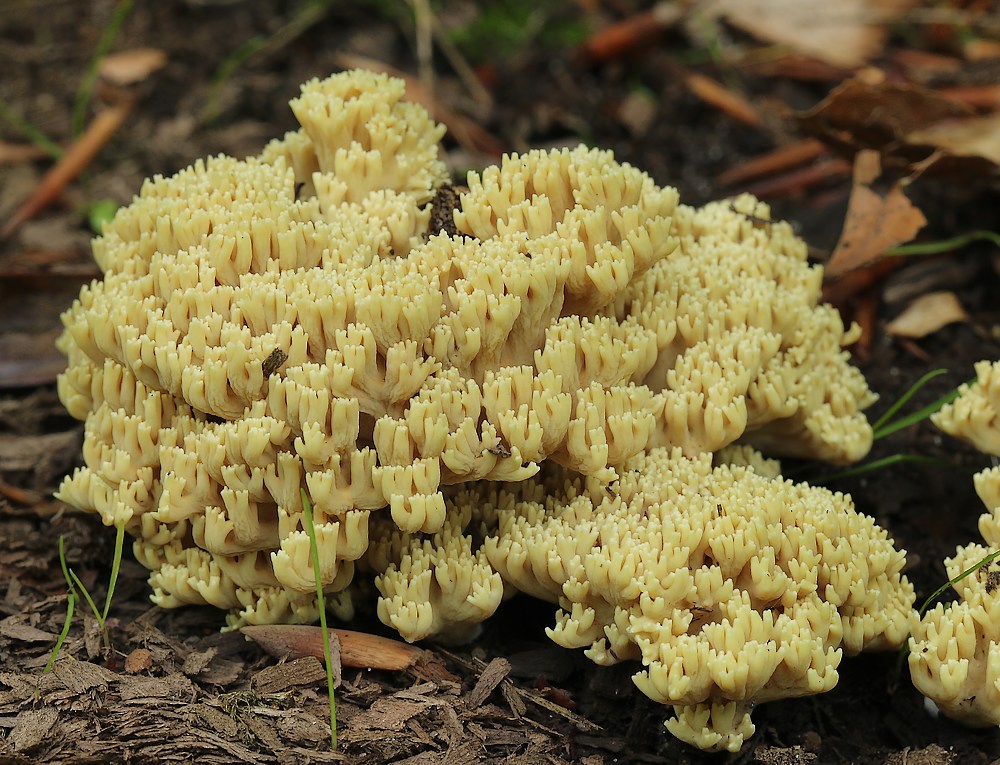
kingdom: Fungi
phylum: Basidiomycota
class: Agaricomycetes
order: Gomphales
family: Gomphaceae
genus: Ramaria
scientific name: Ramaria stricta
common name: rank koralsvamp
